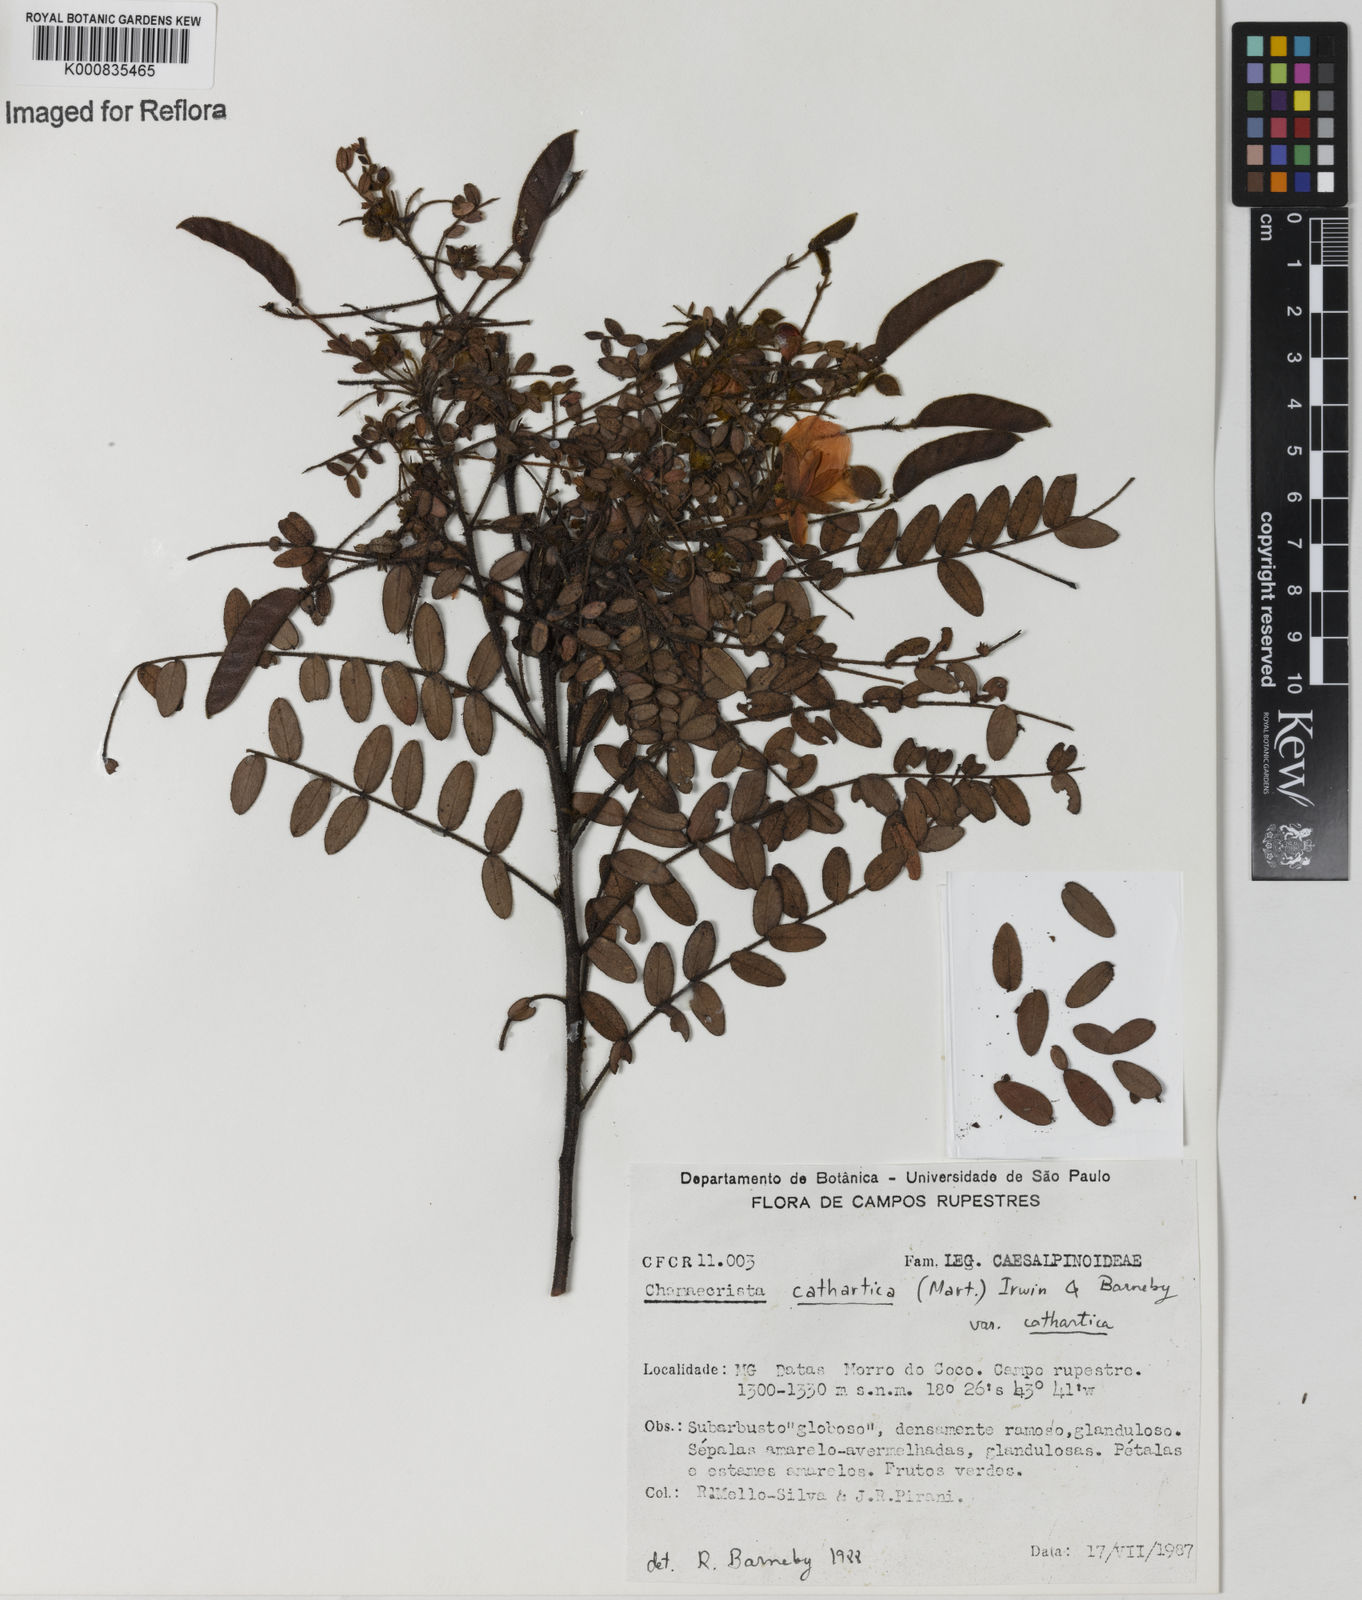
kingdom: Plantae
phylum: Tracheophyta
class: Magnoliopsida
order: Fabales
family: Fabaceae
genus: Chamaecrista
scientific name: Chamaecrista cathartica
